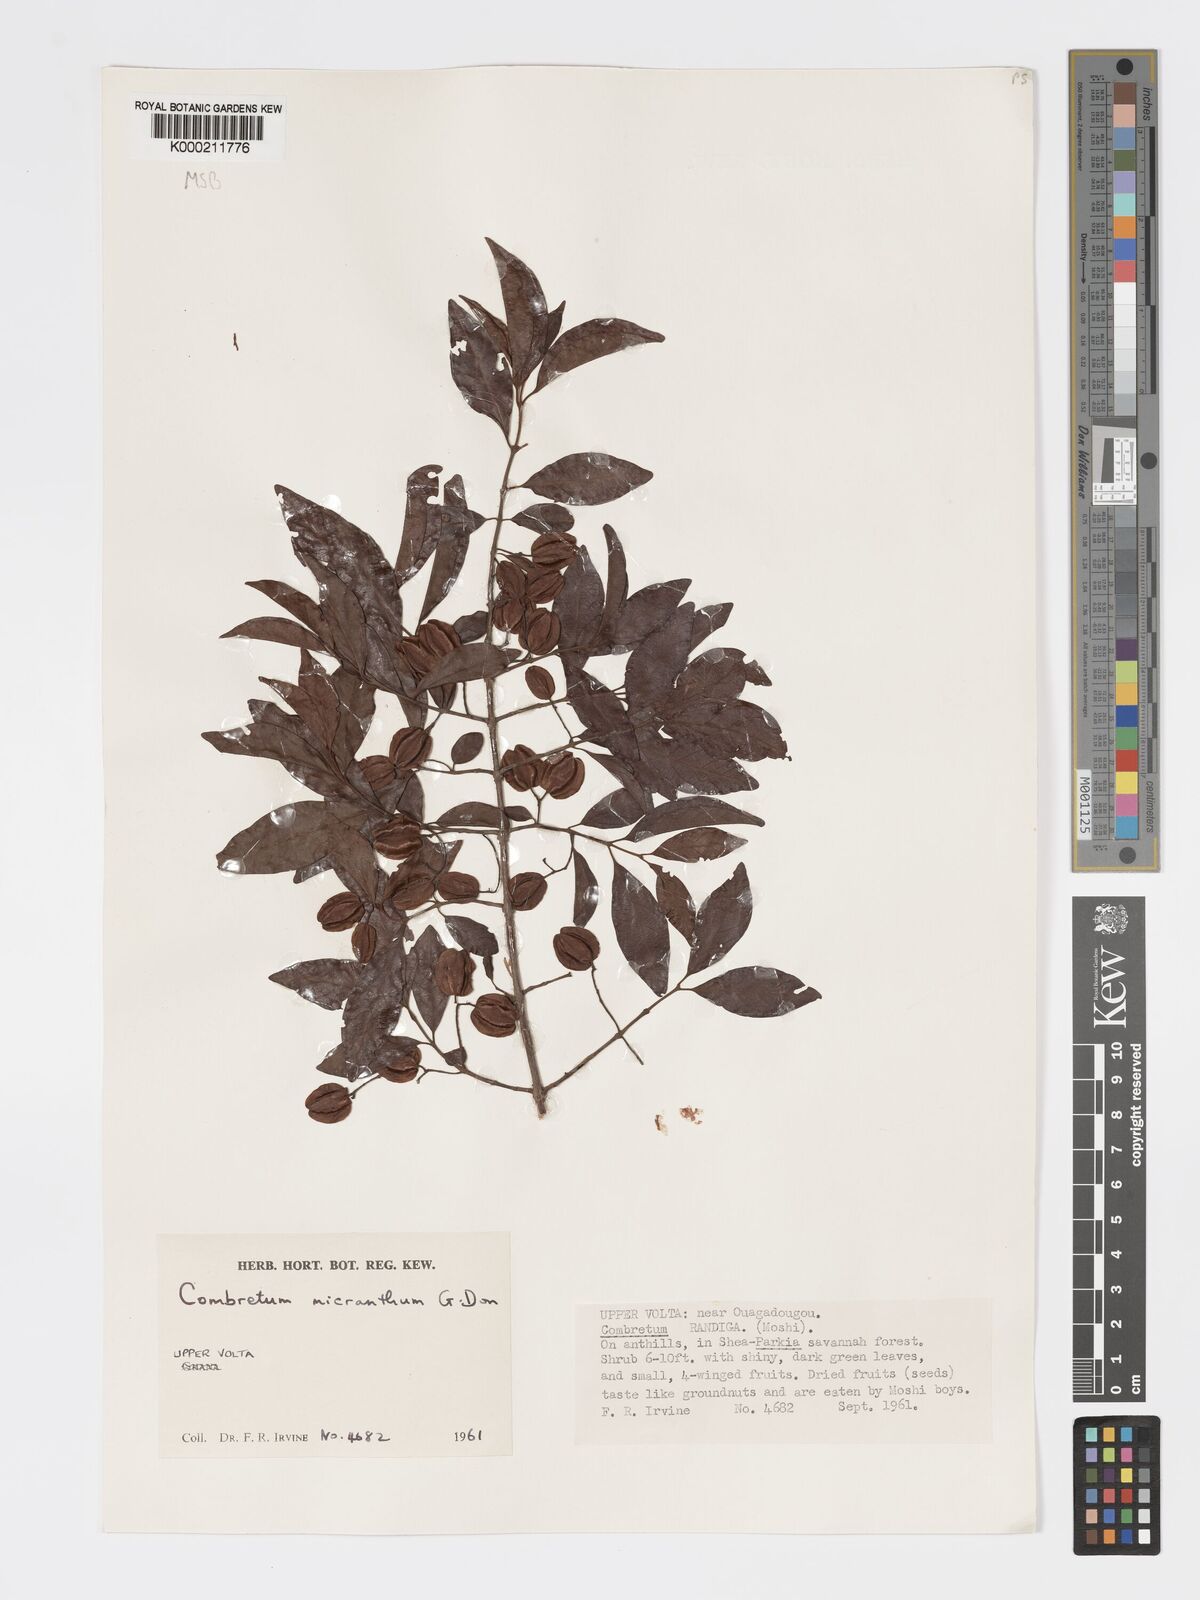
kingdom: Plantae
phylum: Tracheophyta
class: Magnoliopsida
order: Myrtales
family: Combretaceae
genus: Combretum
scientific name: Combretum micranthum
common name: Opium-antidote
